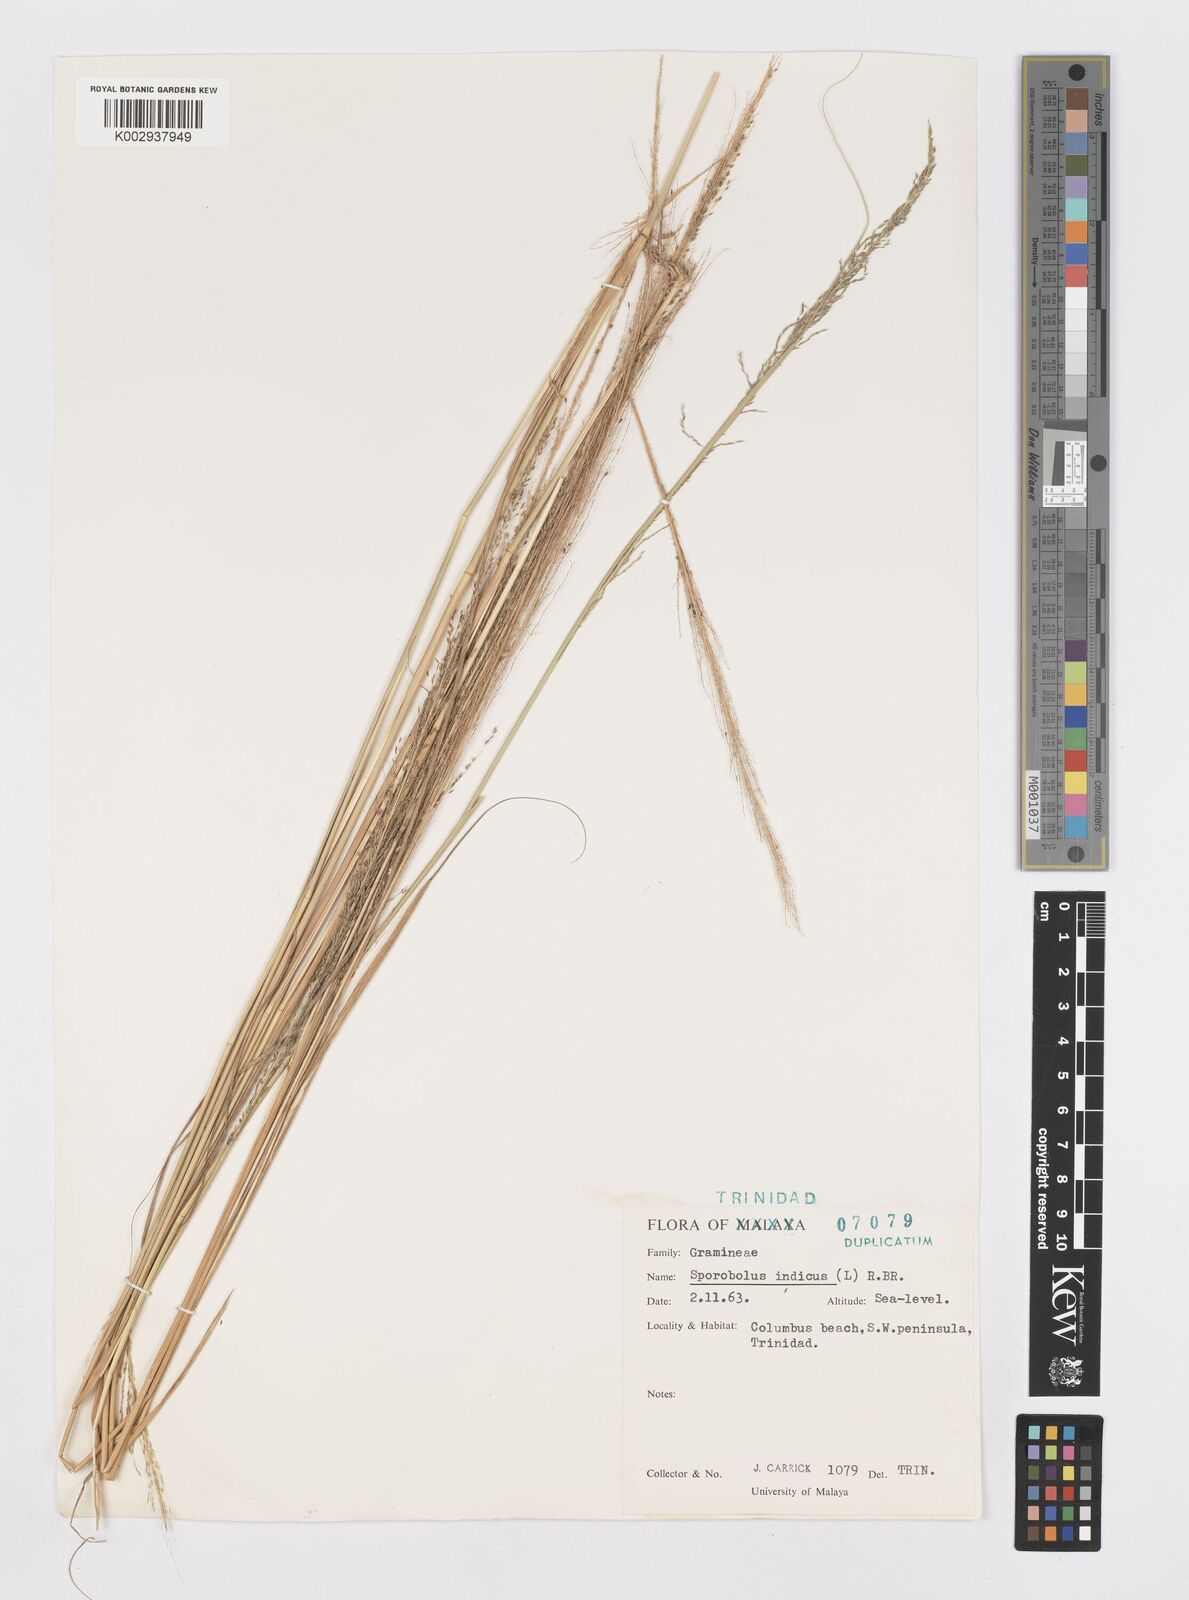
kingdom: Plantae
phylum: Tracheophyta
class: Liliopsida
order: Poales
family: Poaceae
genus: Sporobolus
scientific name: Sporobolus pyramidalis
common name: West indian dropseed
